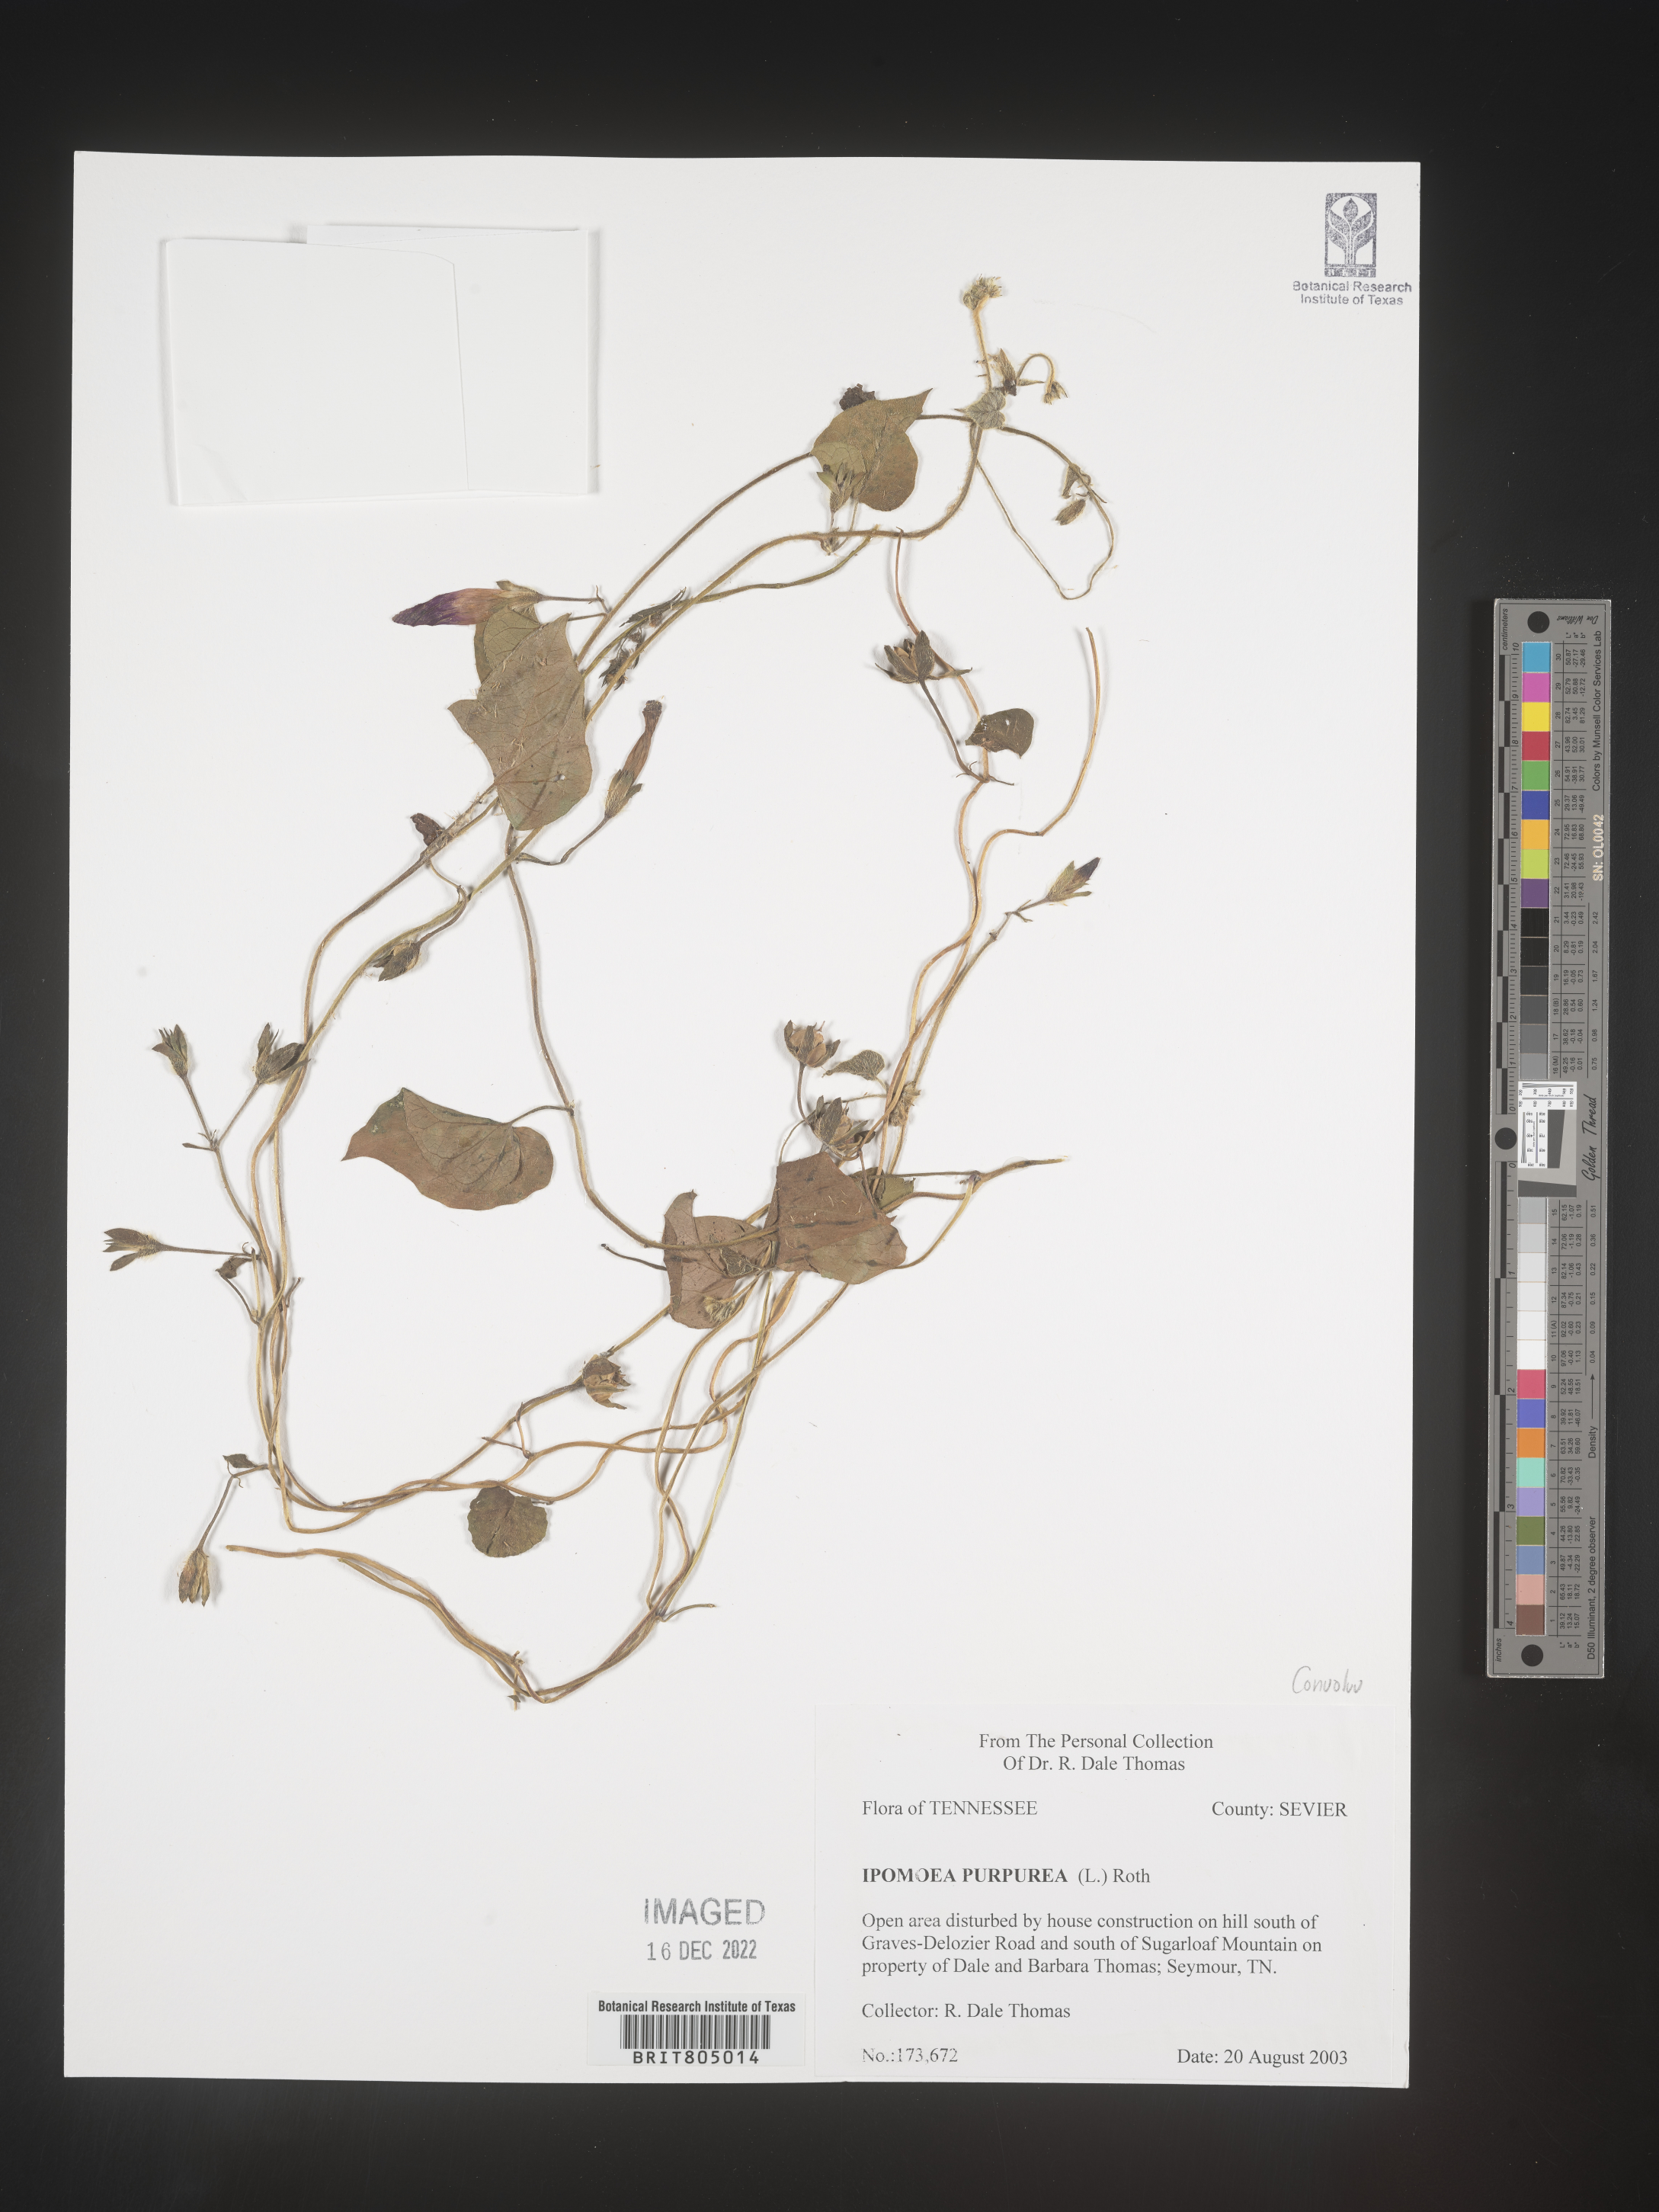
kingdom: Plantae
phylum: Tracheophyta
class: Magnoliopsida
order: Solanales
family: Convolvulaceae
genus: Ipomoea
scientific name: Ipomoea purpurea
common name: Common morning-glory
